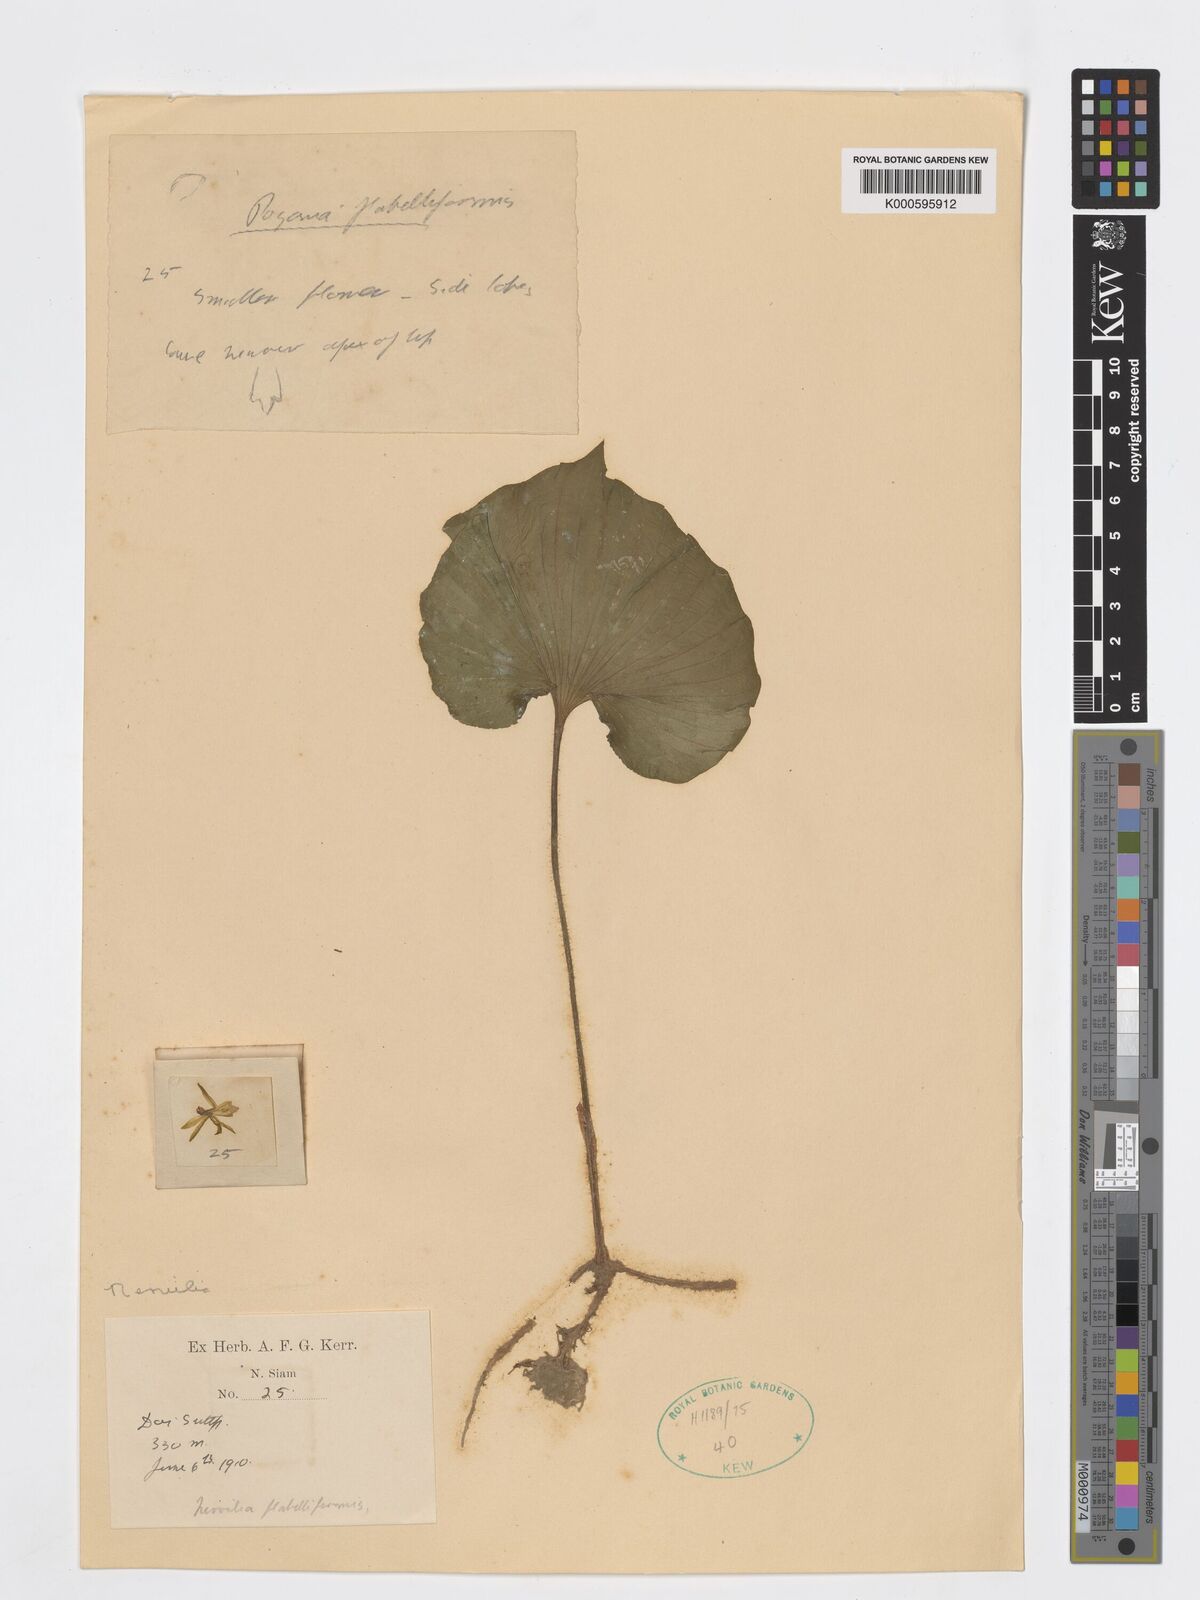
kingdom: Plantae
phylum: Tracheophyta
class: Liliopsida
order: Asparagales
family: Orchidaceae
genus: Nervilia
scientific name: Nervilia concolor
